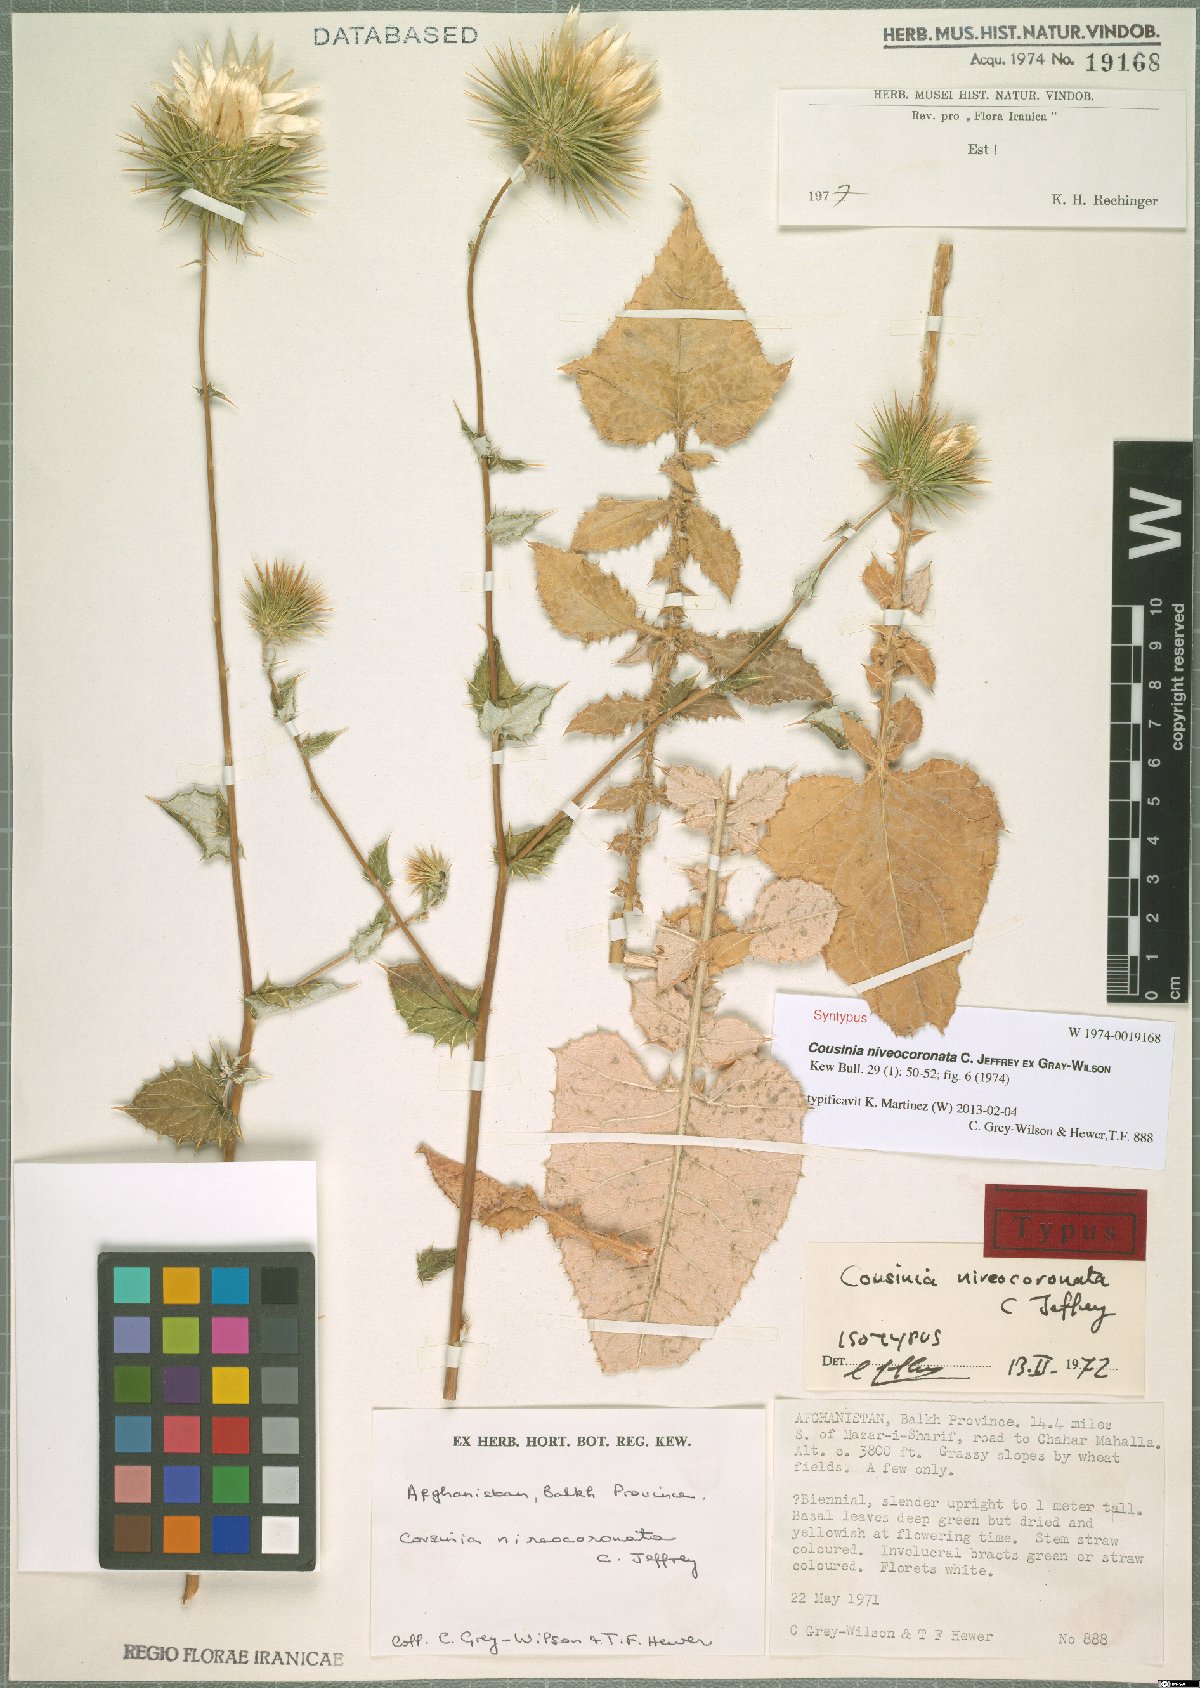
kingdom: Plantae
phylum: Tracheophyta
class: Magnoliopsida
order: Asterales
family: Asteraceae
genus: Cousinia
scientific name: Cousinia niveocoronata
